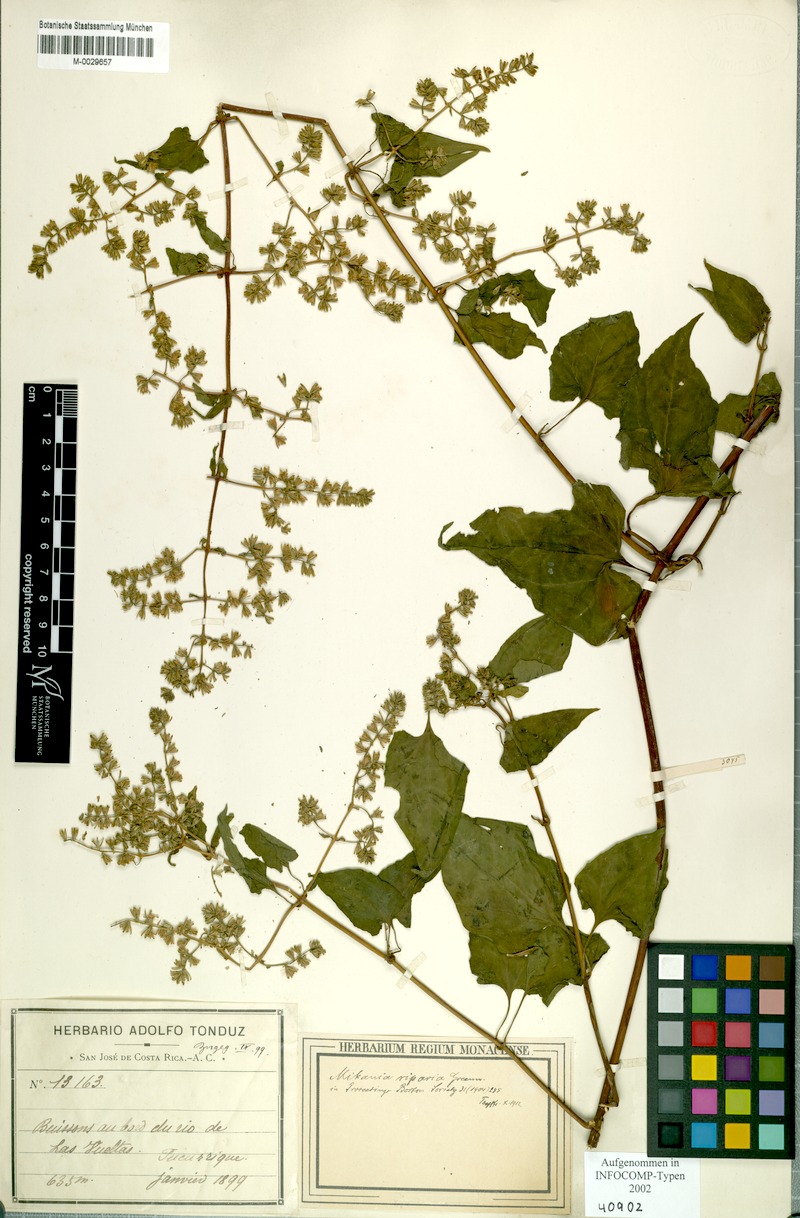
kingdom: Plantae
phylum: Tracheophyta
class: Magnoliopsida
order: Asterales
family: Asteraceae
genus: Mikania
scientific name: Mikania riparia
